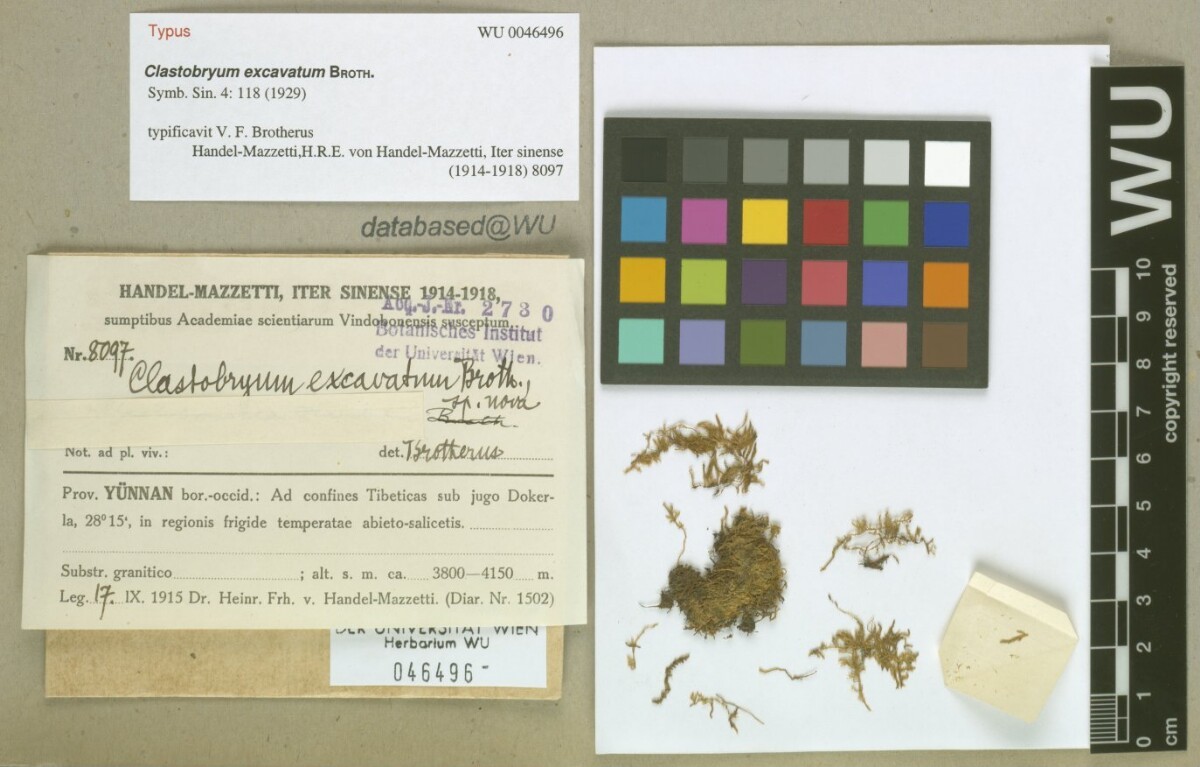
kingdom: Plantae
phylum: Bryophyta
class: Bryopsida
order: Hypnales
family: Leskeaceae
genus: Rozea
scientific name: Rozea pterogonioides
